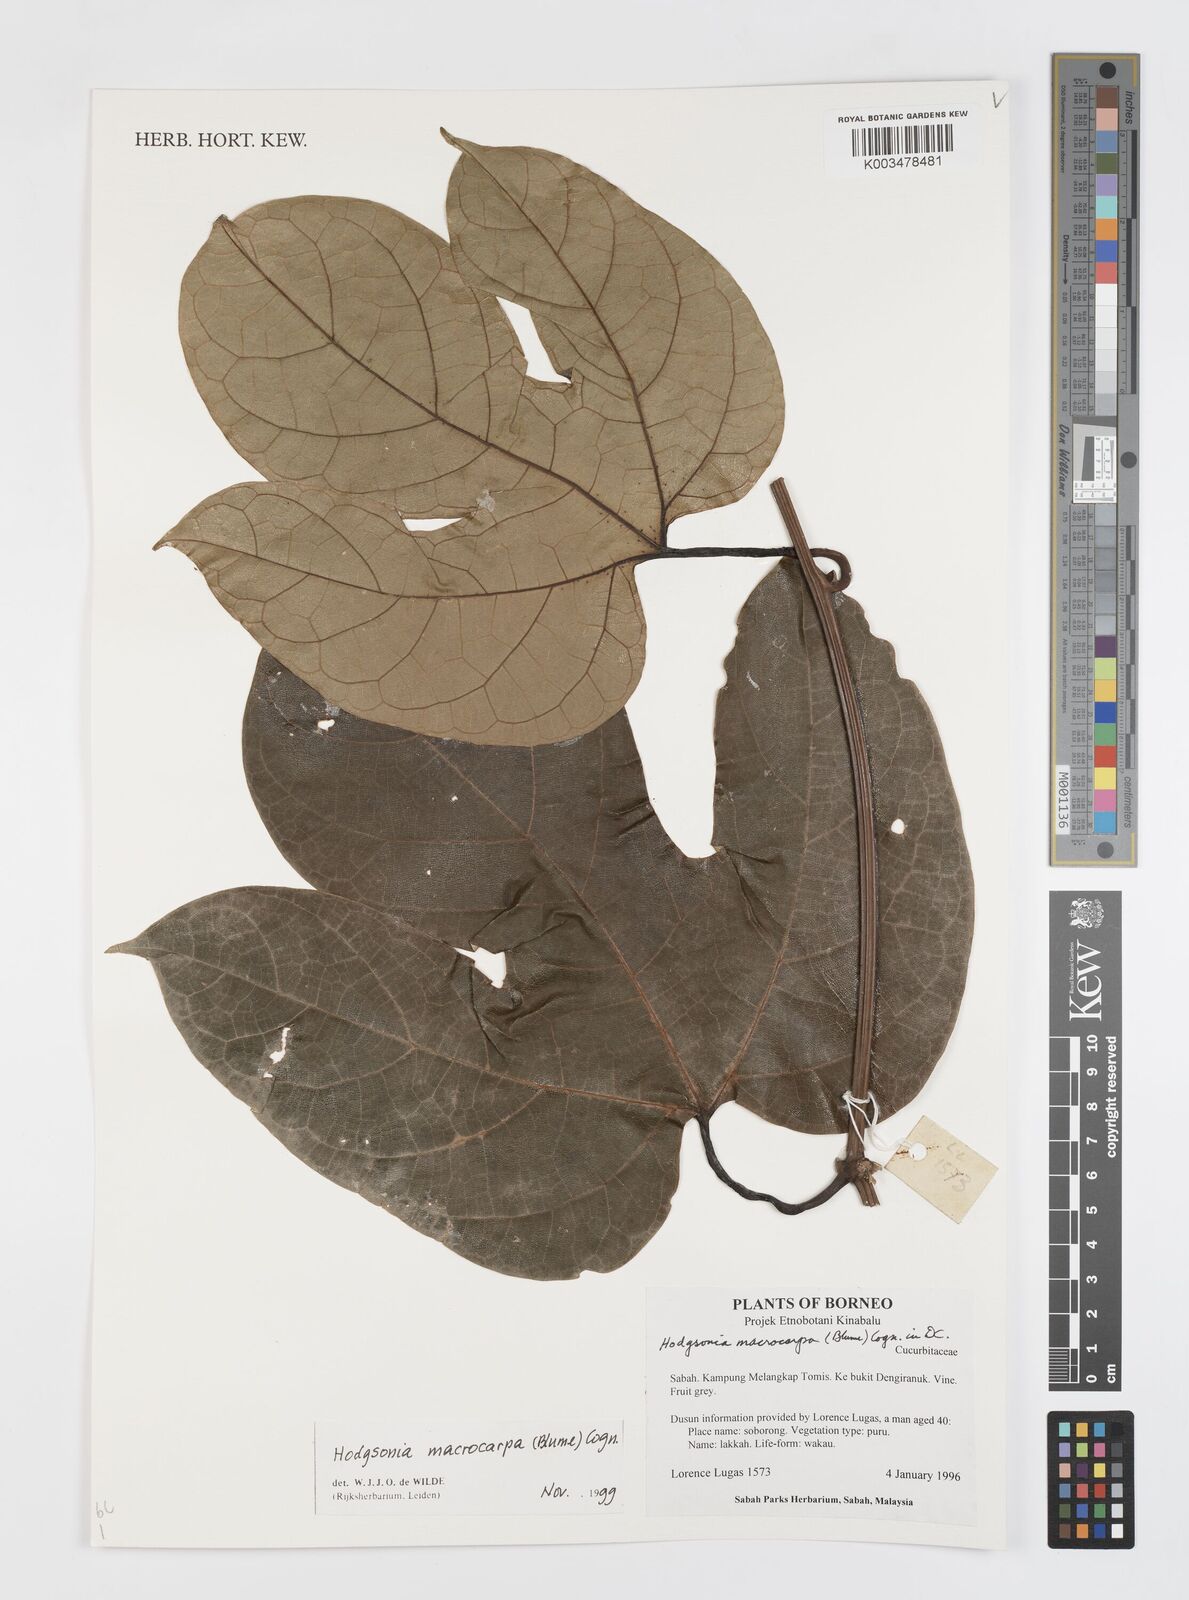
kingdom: Plantae
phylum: Tracheophyta
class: Magnoliopsida
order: Cucurbitales
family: Cucurbitaceae
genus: Hodgsonia
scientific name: Hodgsonia macrocarpa
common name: Chinese lardfruit
